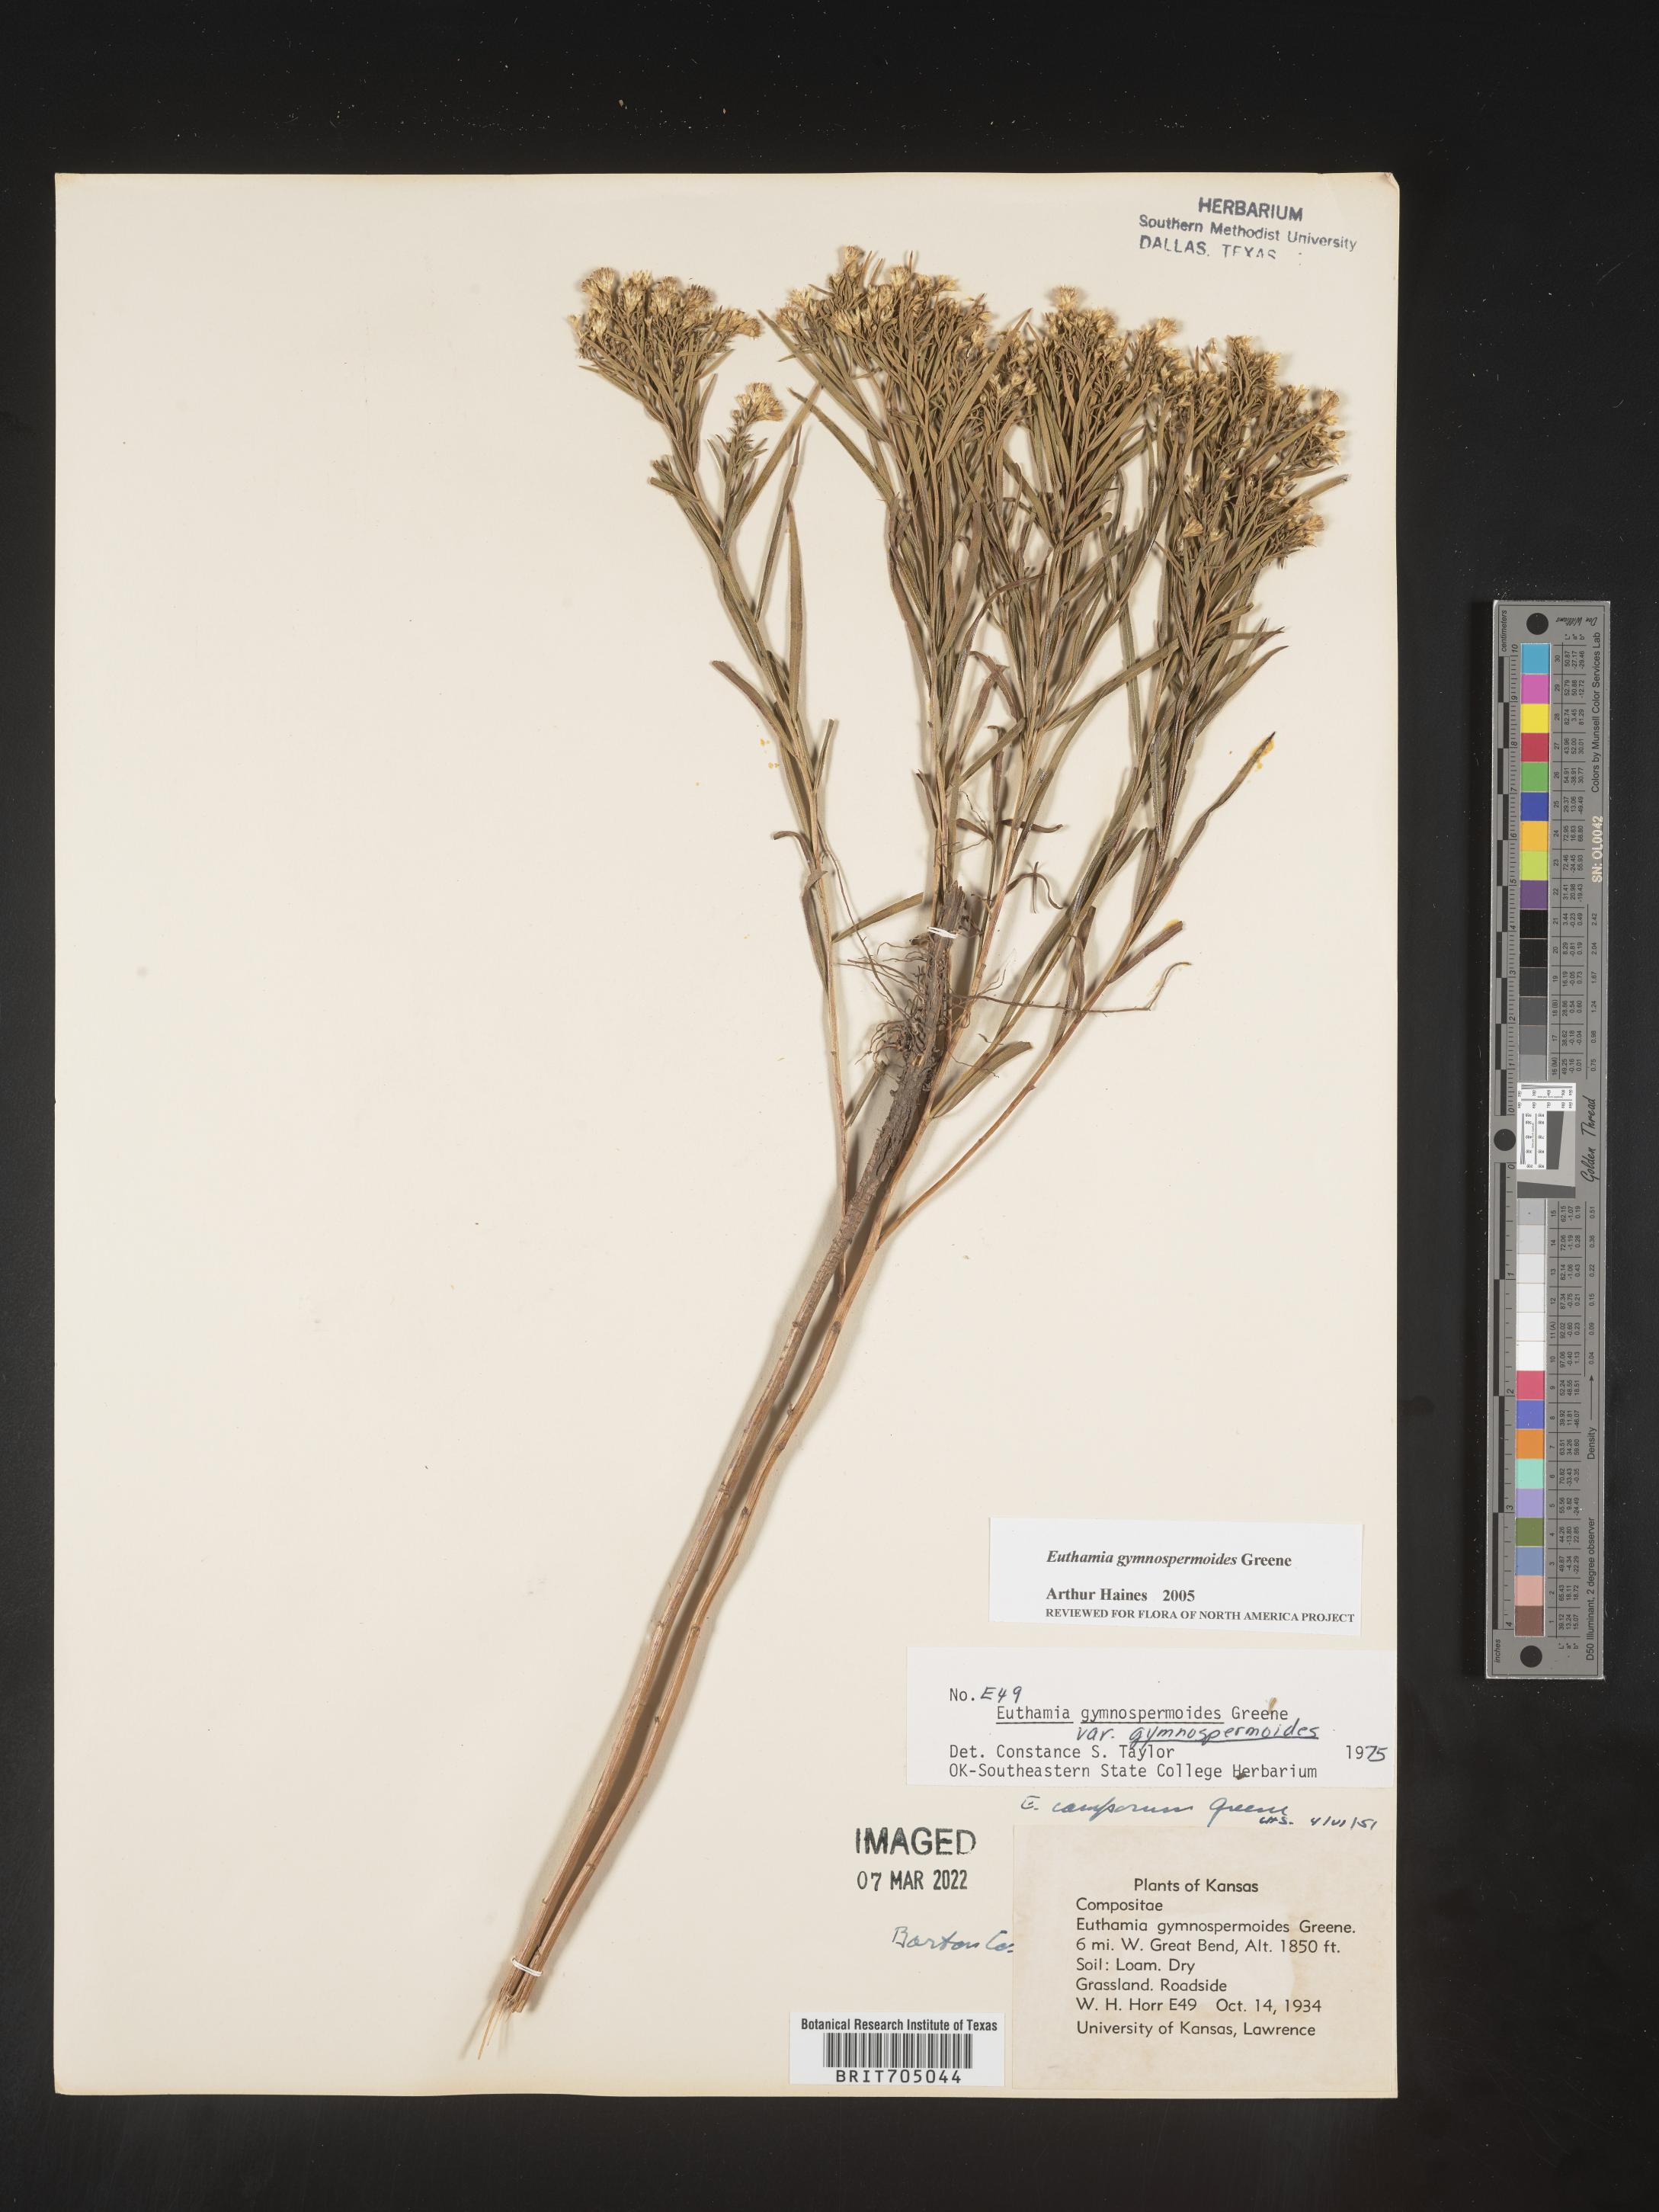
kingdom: Plantae
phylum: Tracheophyta
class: Magnoliopsida
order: Asterales
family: Asteraceae
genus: Euthamia
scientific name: Euthamia gymnospermoides
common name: Great plains goldentop
